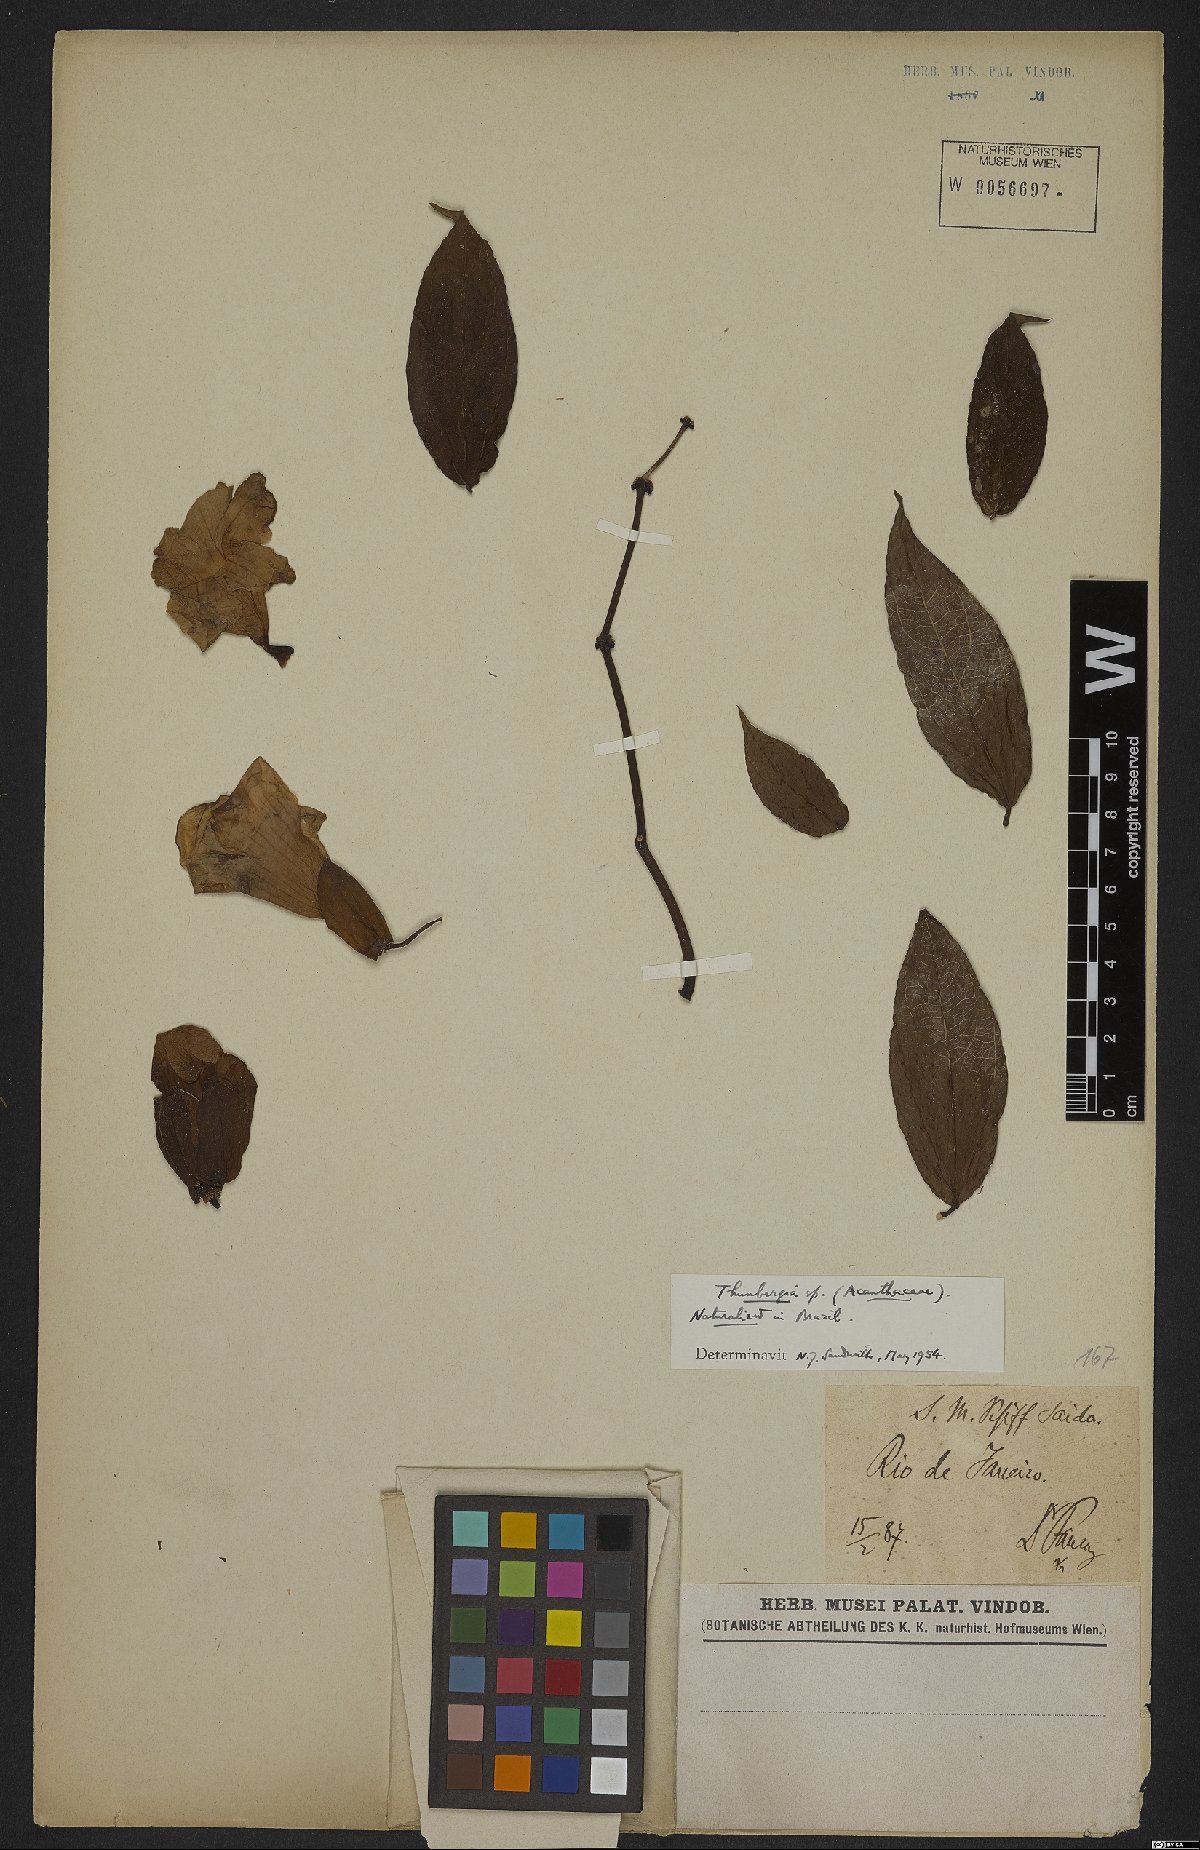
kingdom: Plantae
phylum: Tracheophyta
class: Magnoliopsida
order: Lamiales
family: Acanthaceae
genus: Thunbergia
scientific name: Thunbergia
